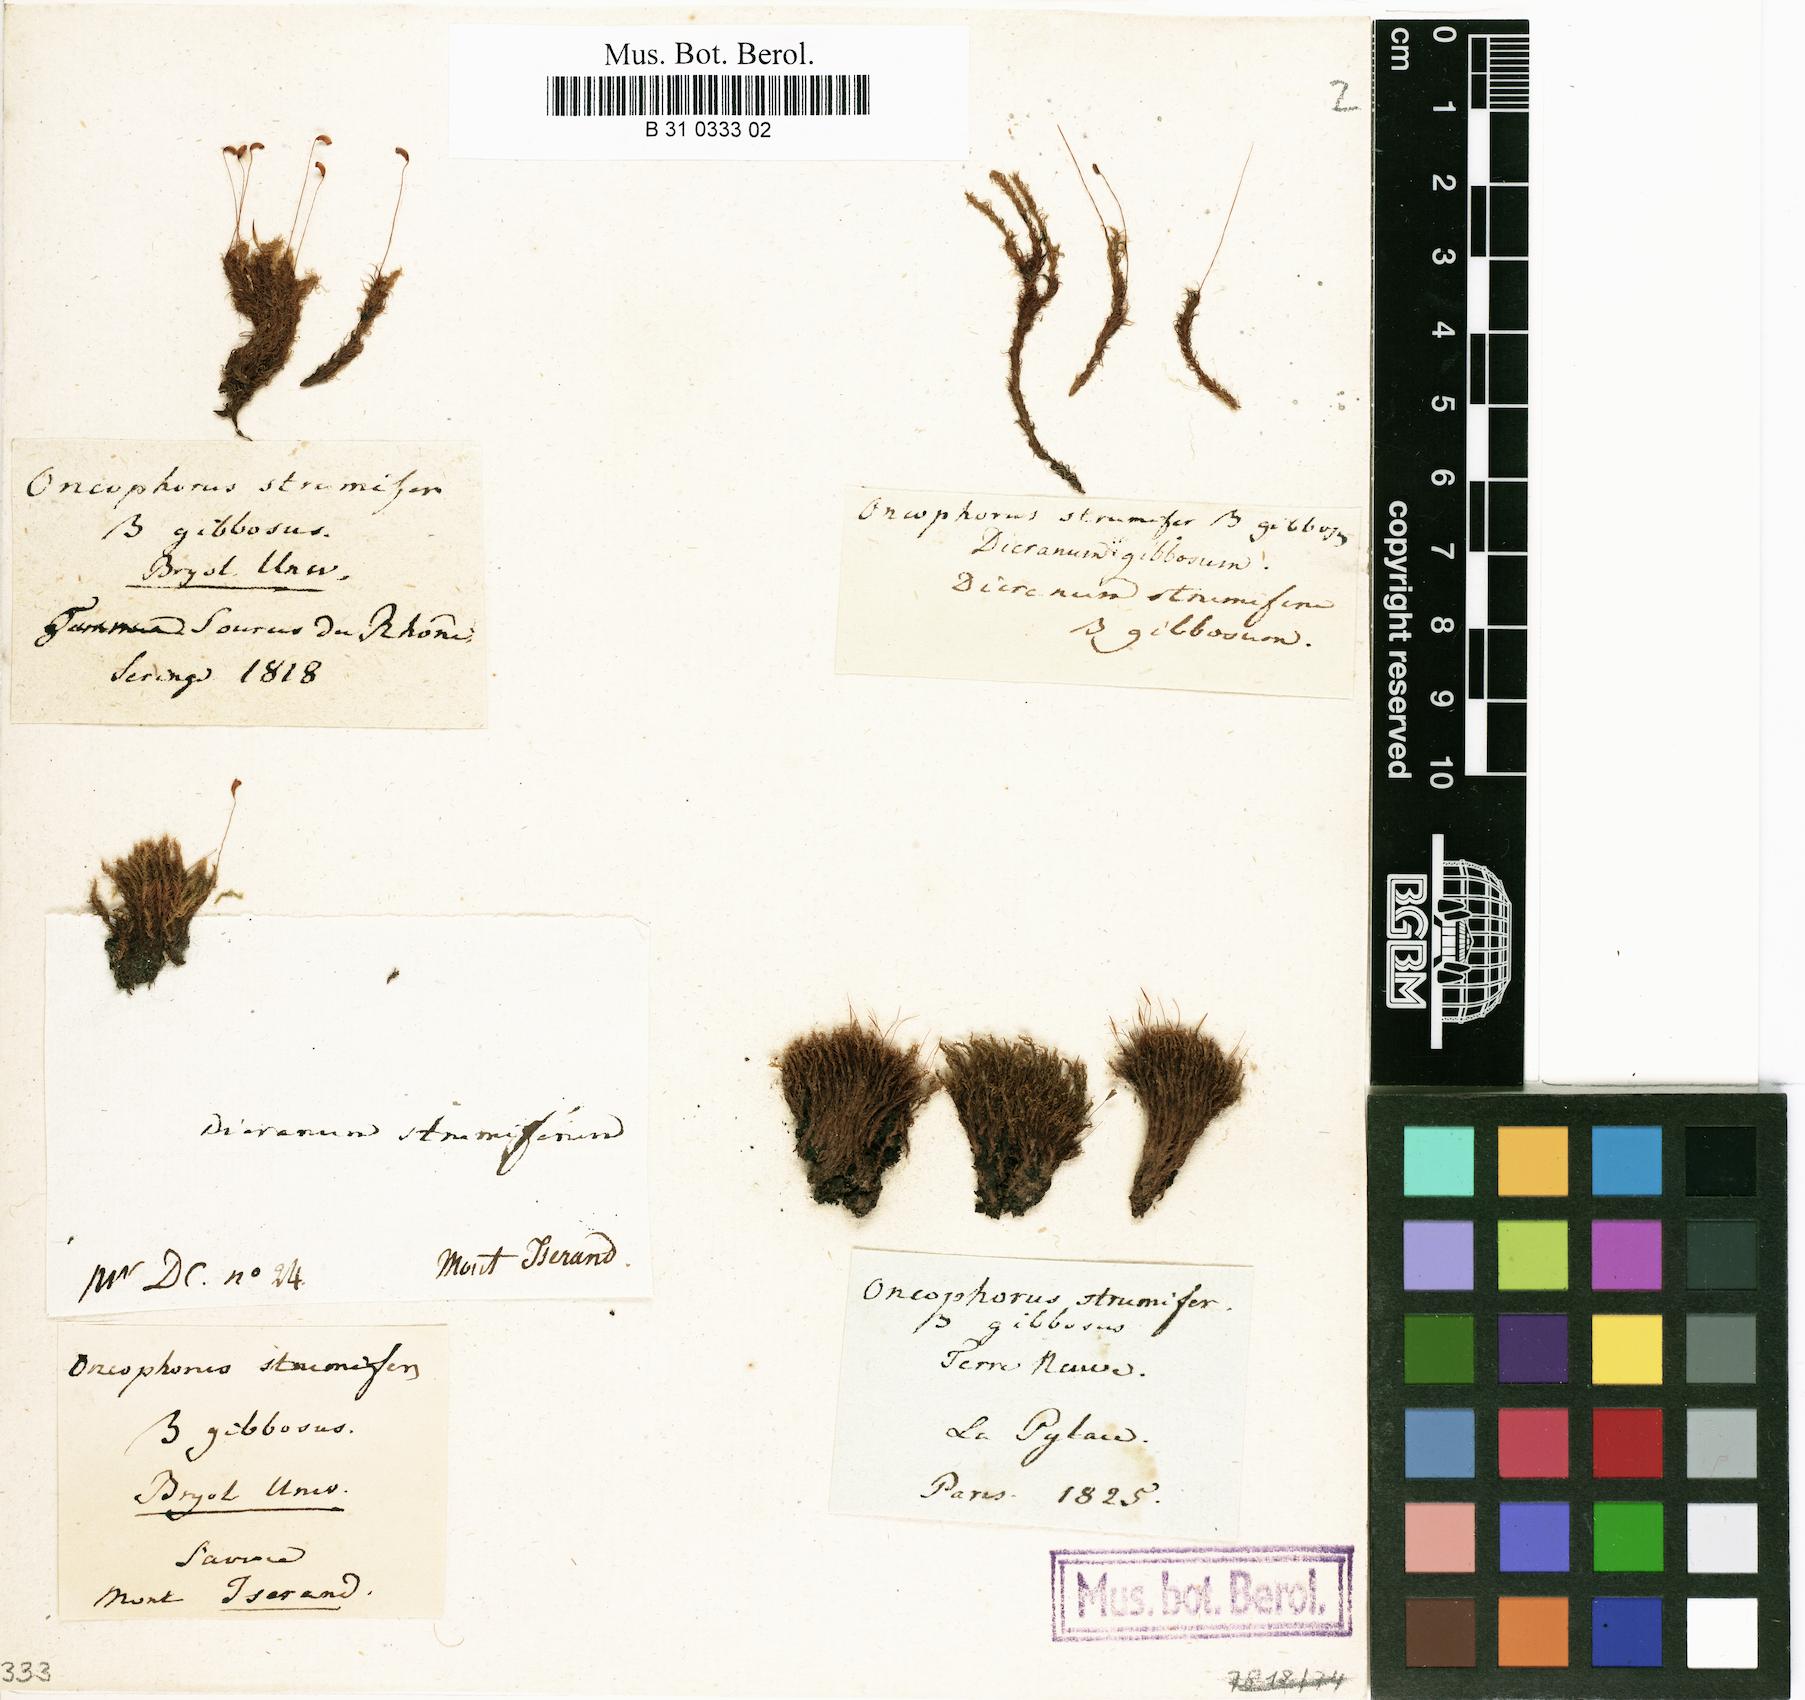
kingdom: Plantae
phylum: Bryophyta
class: Bryopsida
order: Dicranales
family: Rhabdoweisiaceae
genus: Cynodontium
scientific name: Cynodontium strumiferum
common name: Swollen dogtooth moss
